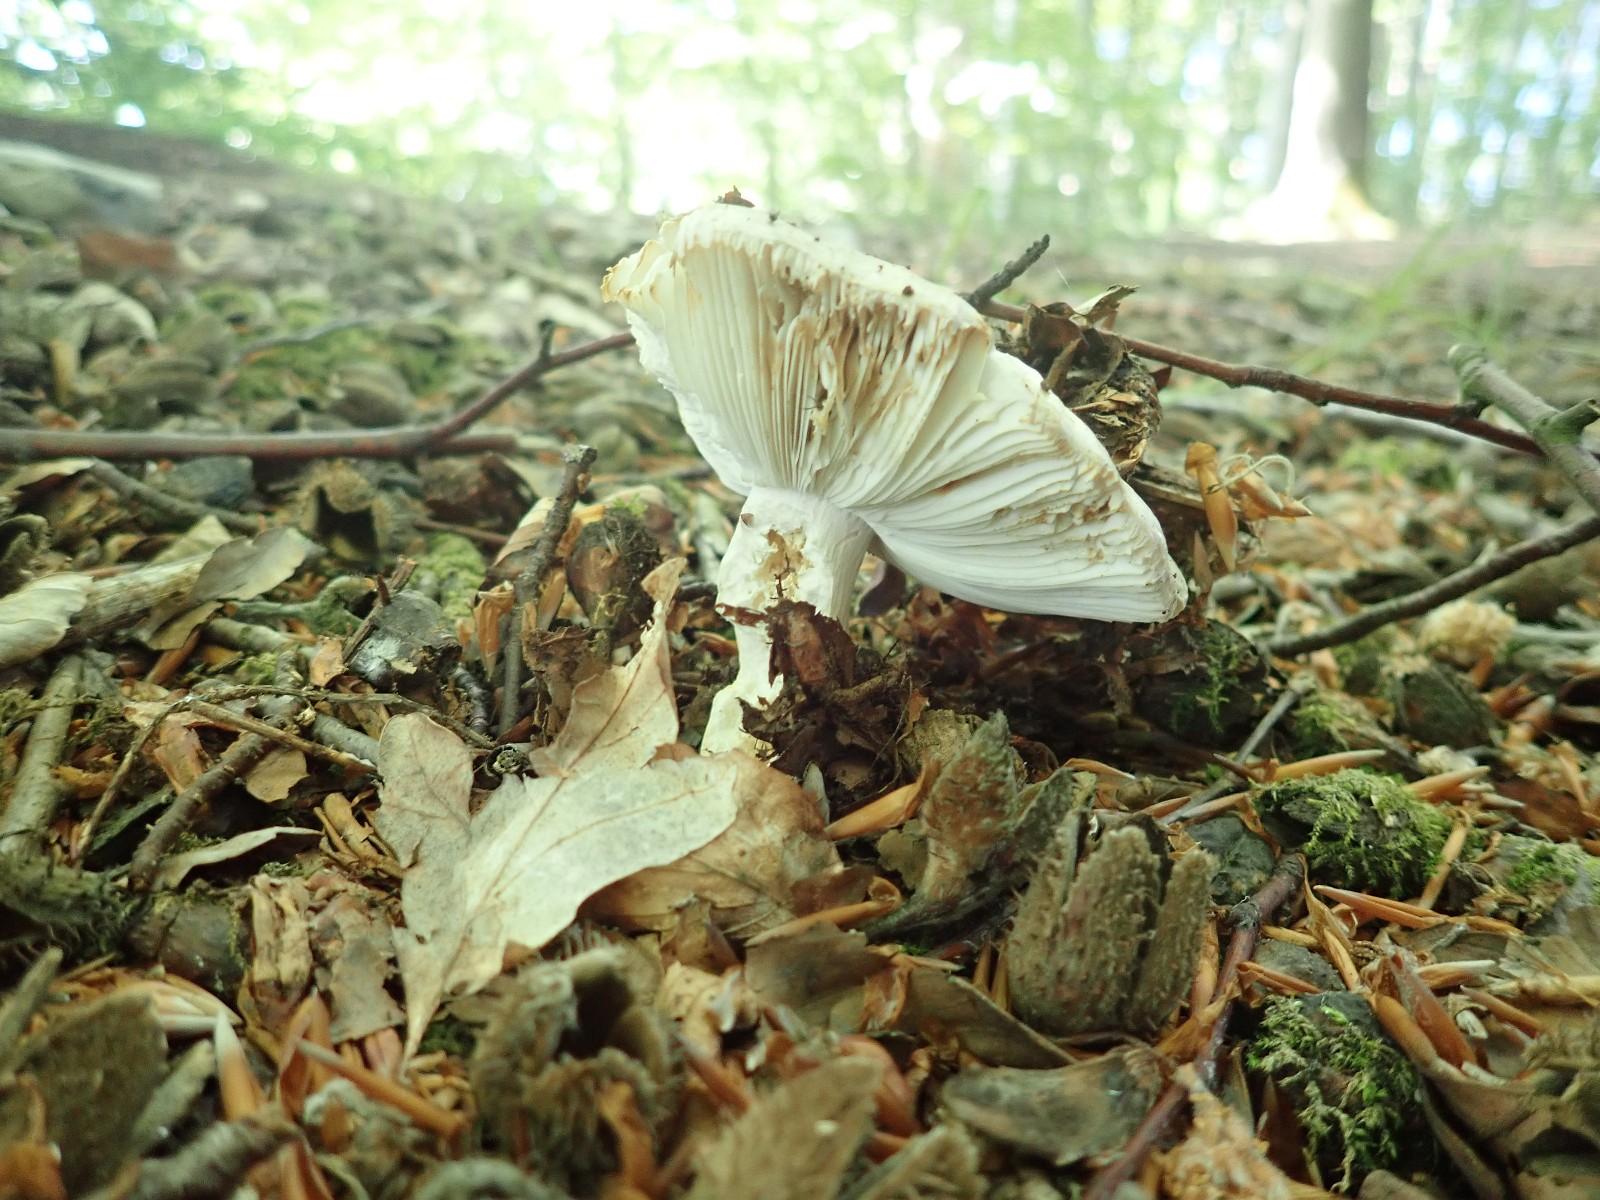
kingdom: Fungi
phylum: Basidiomycota
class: Agaricomycetes
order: Russulales
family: Russulaceae
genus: Russula
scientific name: Russula
